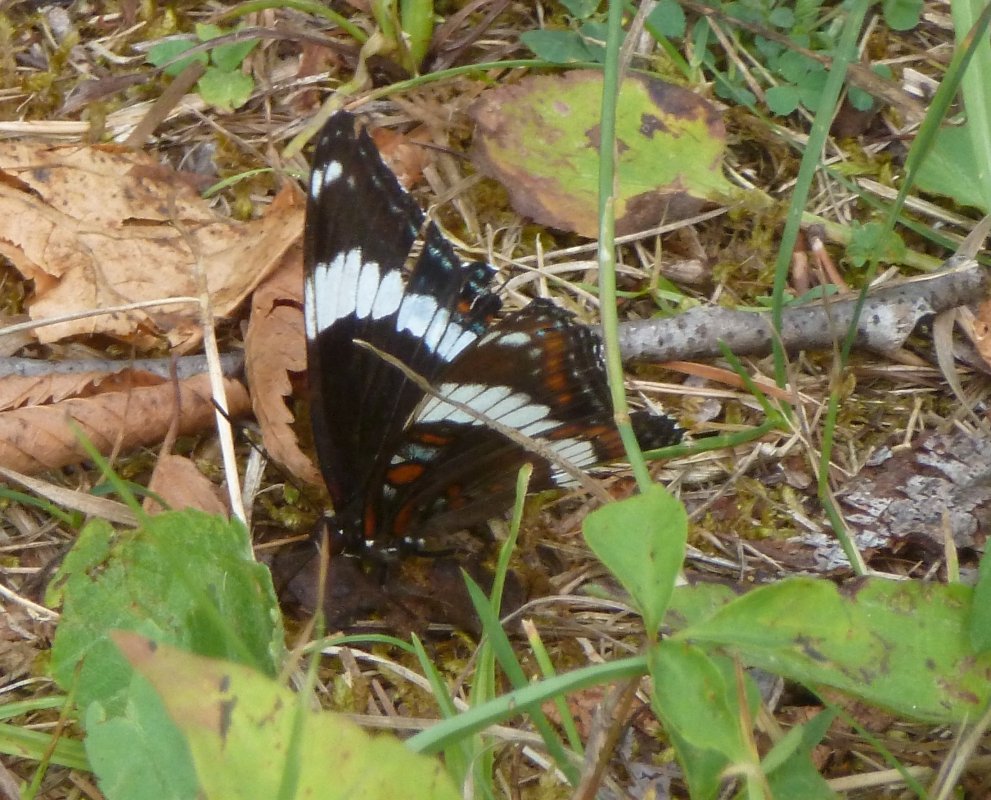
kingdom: Animalia
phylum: Arthropoda
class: Insecta
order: Lepidoptera
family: Nymphalidae
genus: Limenitis
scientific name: Limenitis arthemis
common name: Red-spotted Admiral
